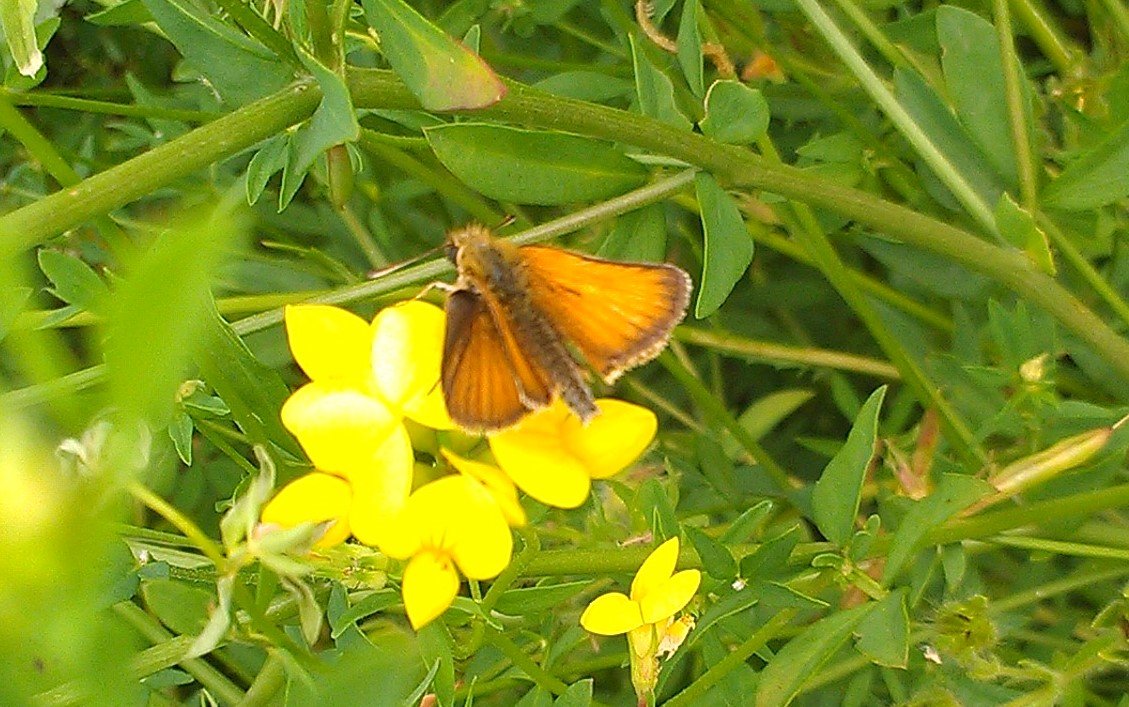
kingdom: Animalia
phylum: Arthropoda
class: Insecta
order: Lepidoptera
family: Hesperiidae
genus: Thymelicus
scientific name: Thymelicus lineola
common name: European Skipper
